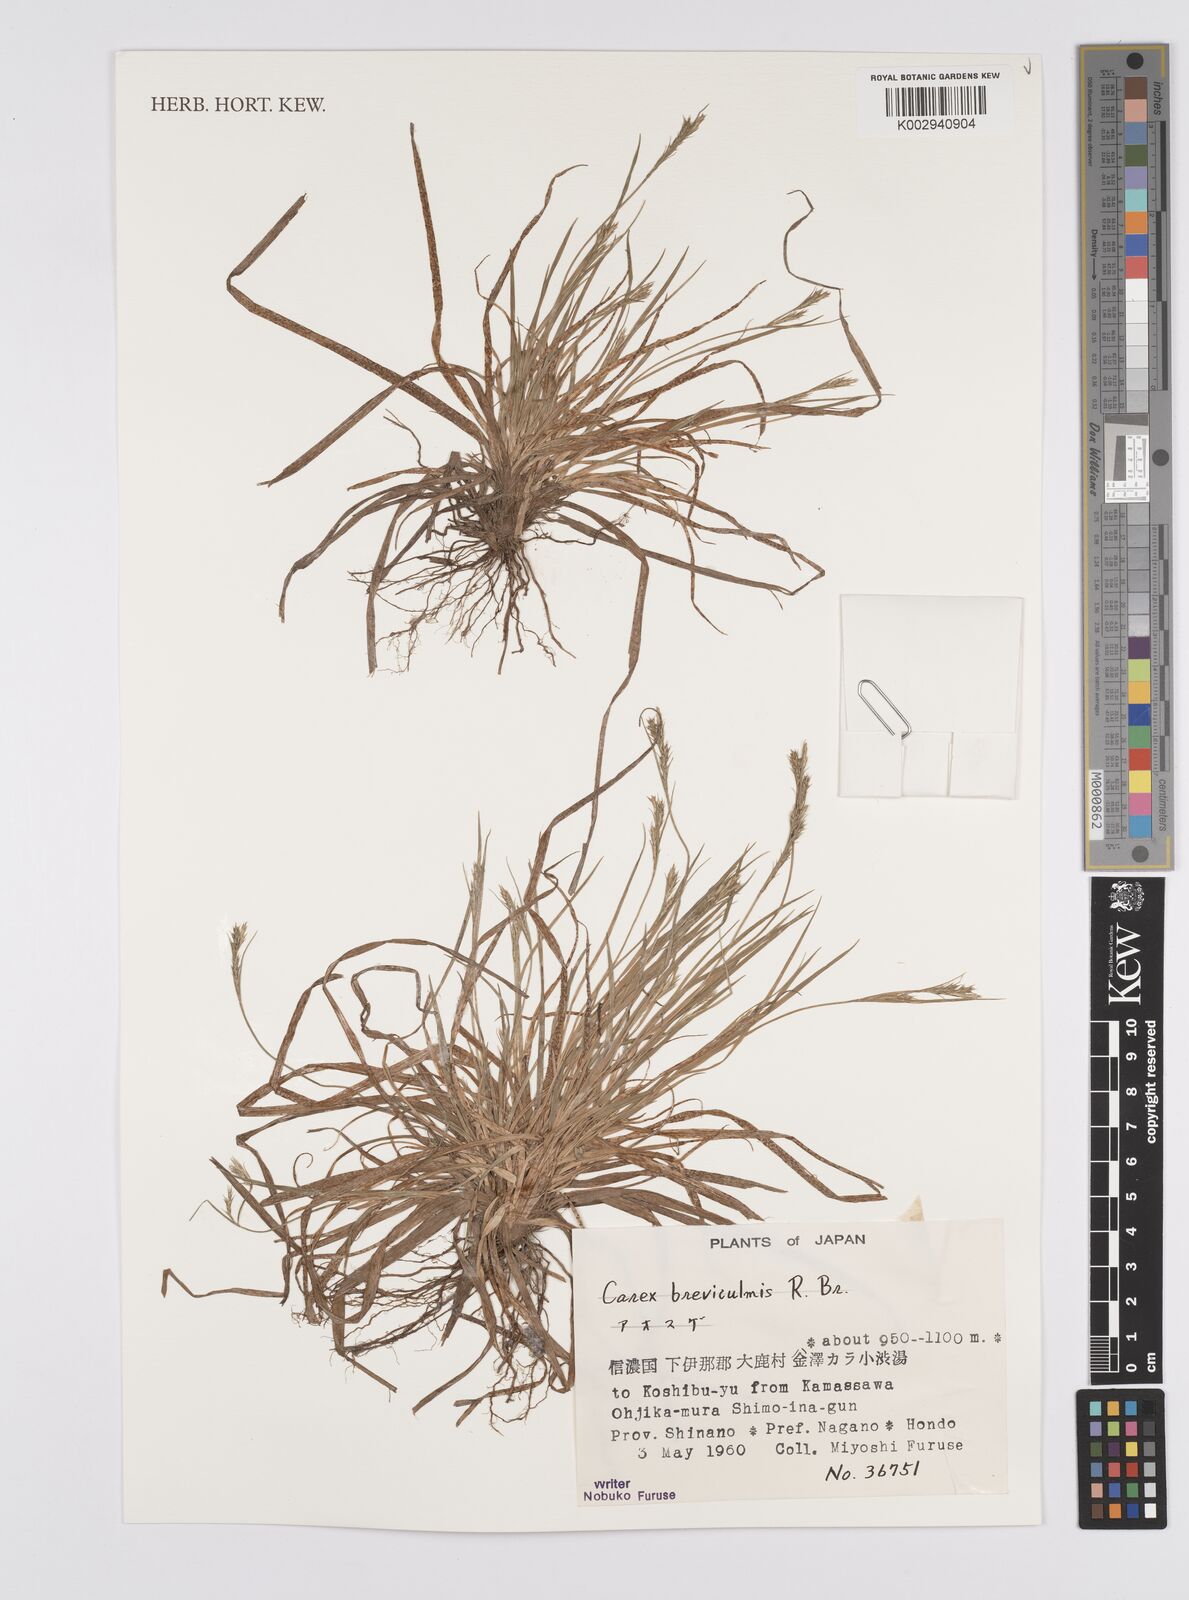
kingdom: Plantae
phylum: Tracheophyta
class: Liliopsida
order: Poales
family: Cyperaceae
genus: Carex
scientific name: Carex breviculmis
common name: Asian shortstem sedge
